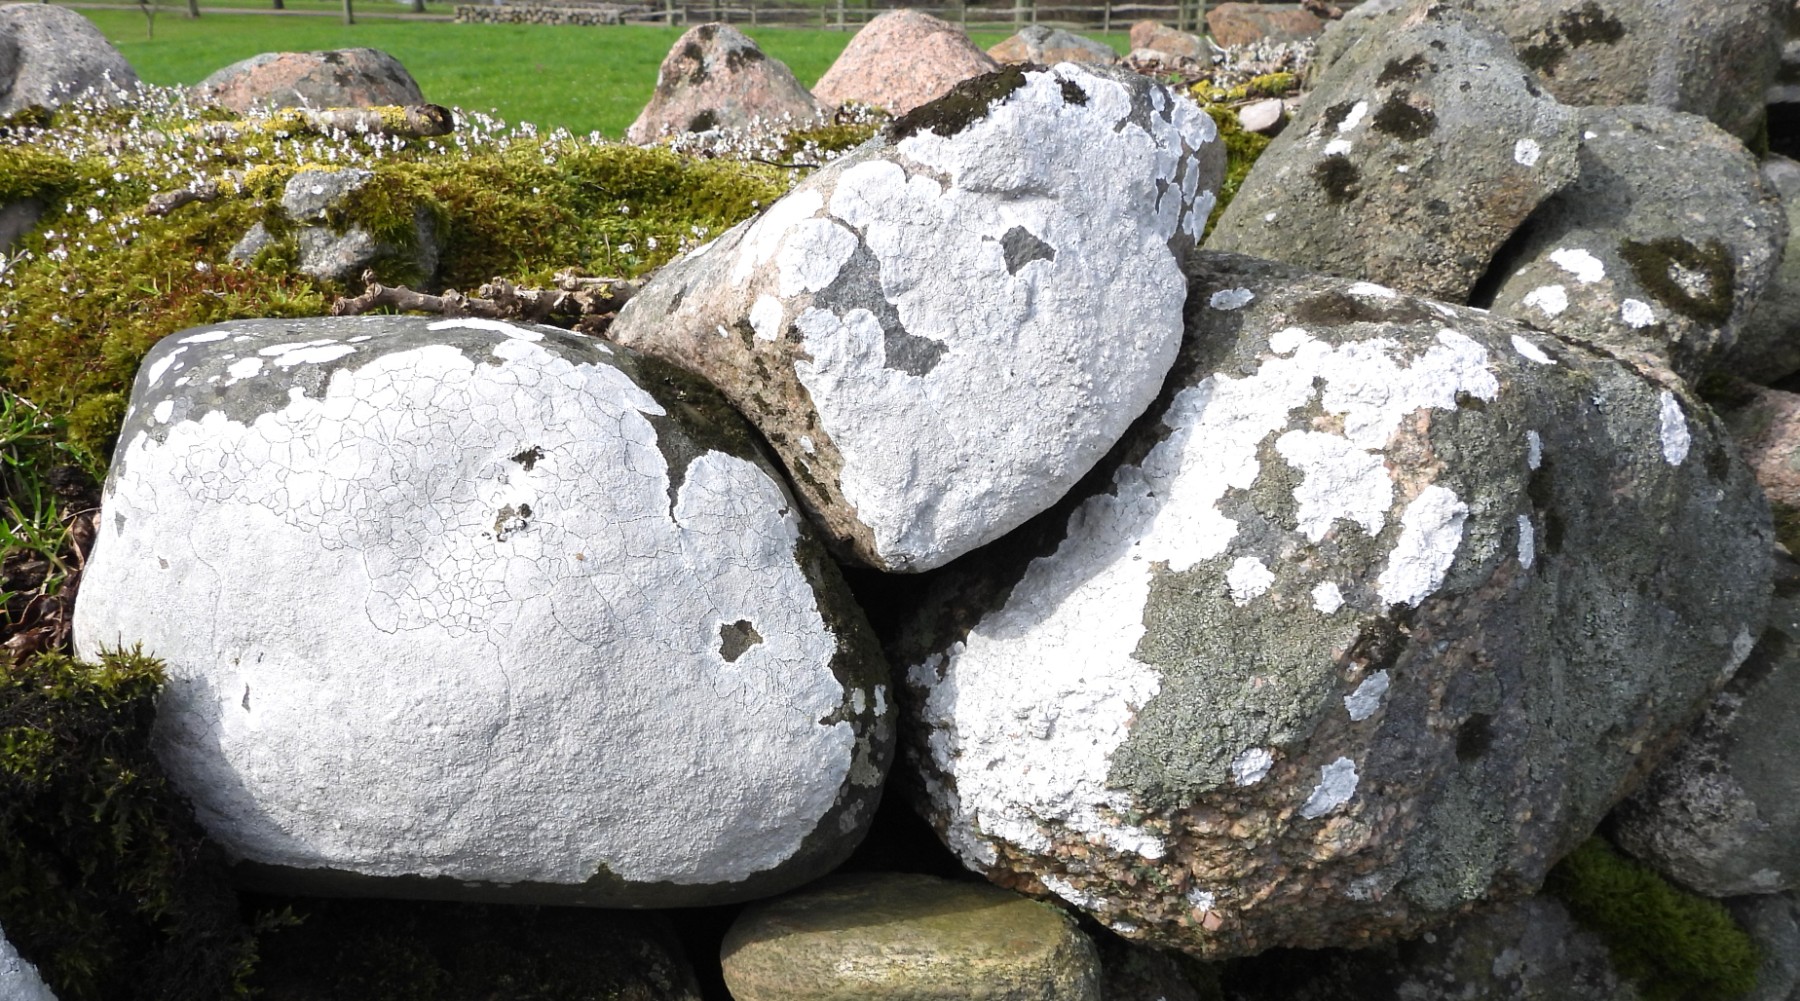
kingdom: Fungi
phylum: Ascomycota
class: Lecanoromycetes
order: Lecanorales
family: Lecanoraceae
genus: Glaucomaria
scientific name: Glaucomaria rupicola
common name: stengærde-kantskivelav
